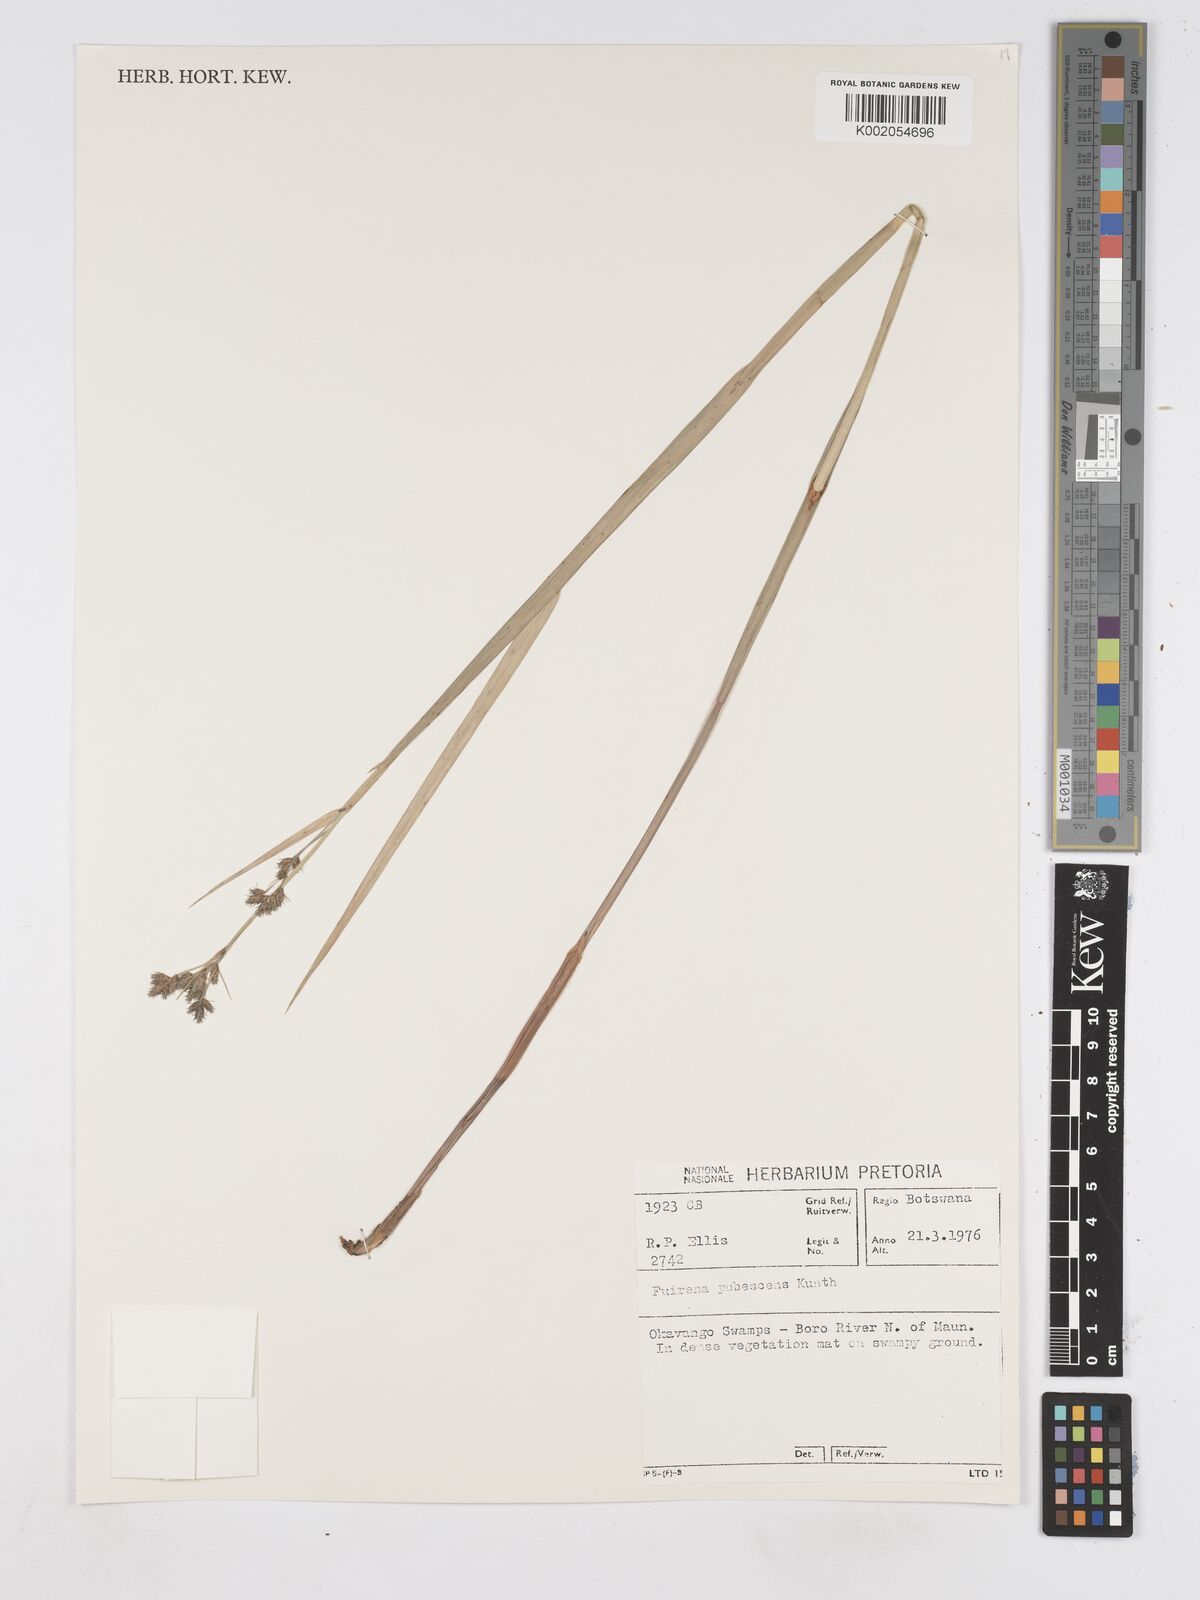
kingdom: Plantae
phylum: Tracheophyta
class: Liliopsida
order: Poales
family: Cyperaceae
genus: Fuirena
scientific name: Fuirena pachyrrhiza
